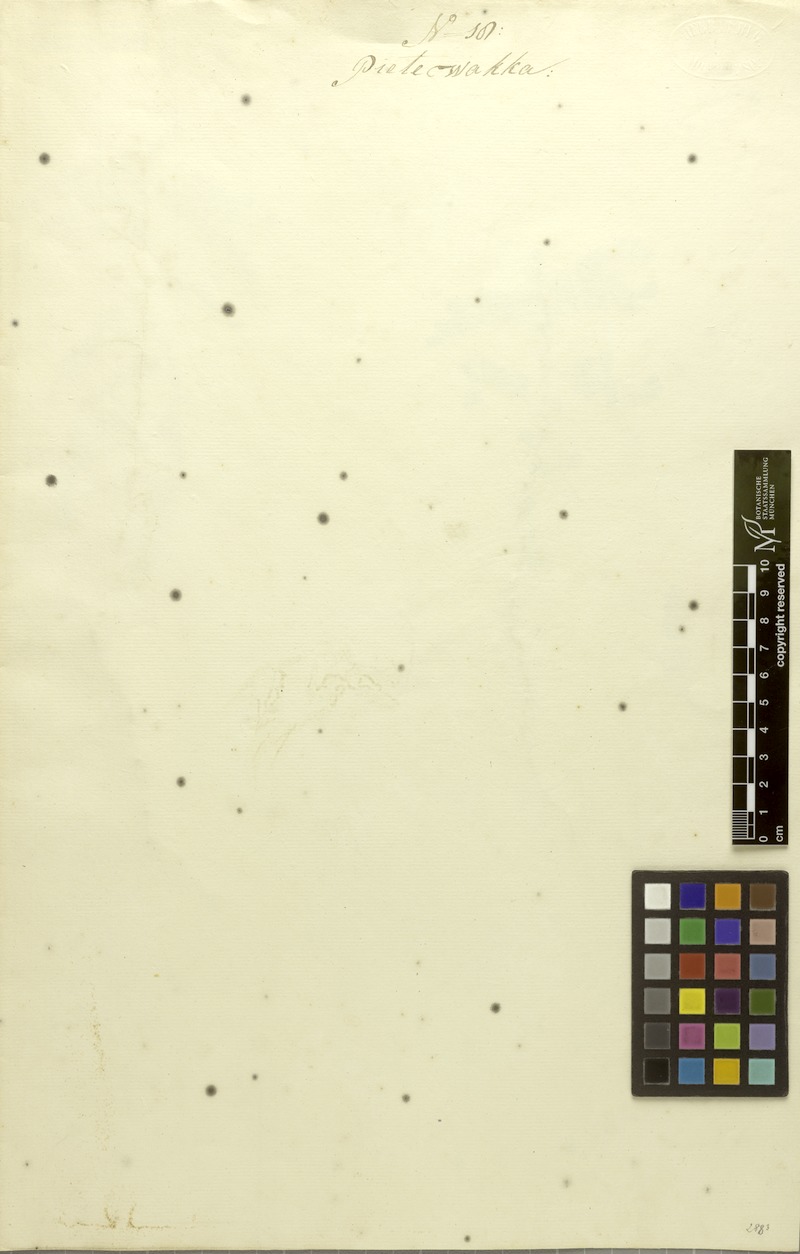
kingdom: Plantae
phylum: Tracheophyta
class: Magnoliopsida
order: Malpighiales
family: Phyllanthaceae
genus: Phyllanthus
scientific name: Phyllanthus niruri
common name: Niruri
